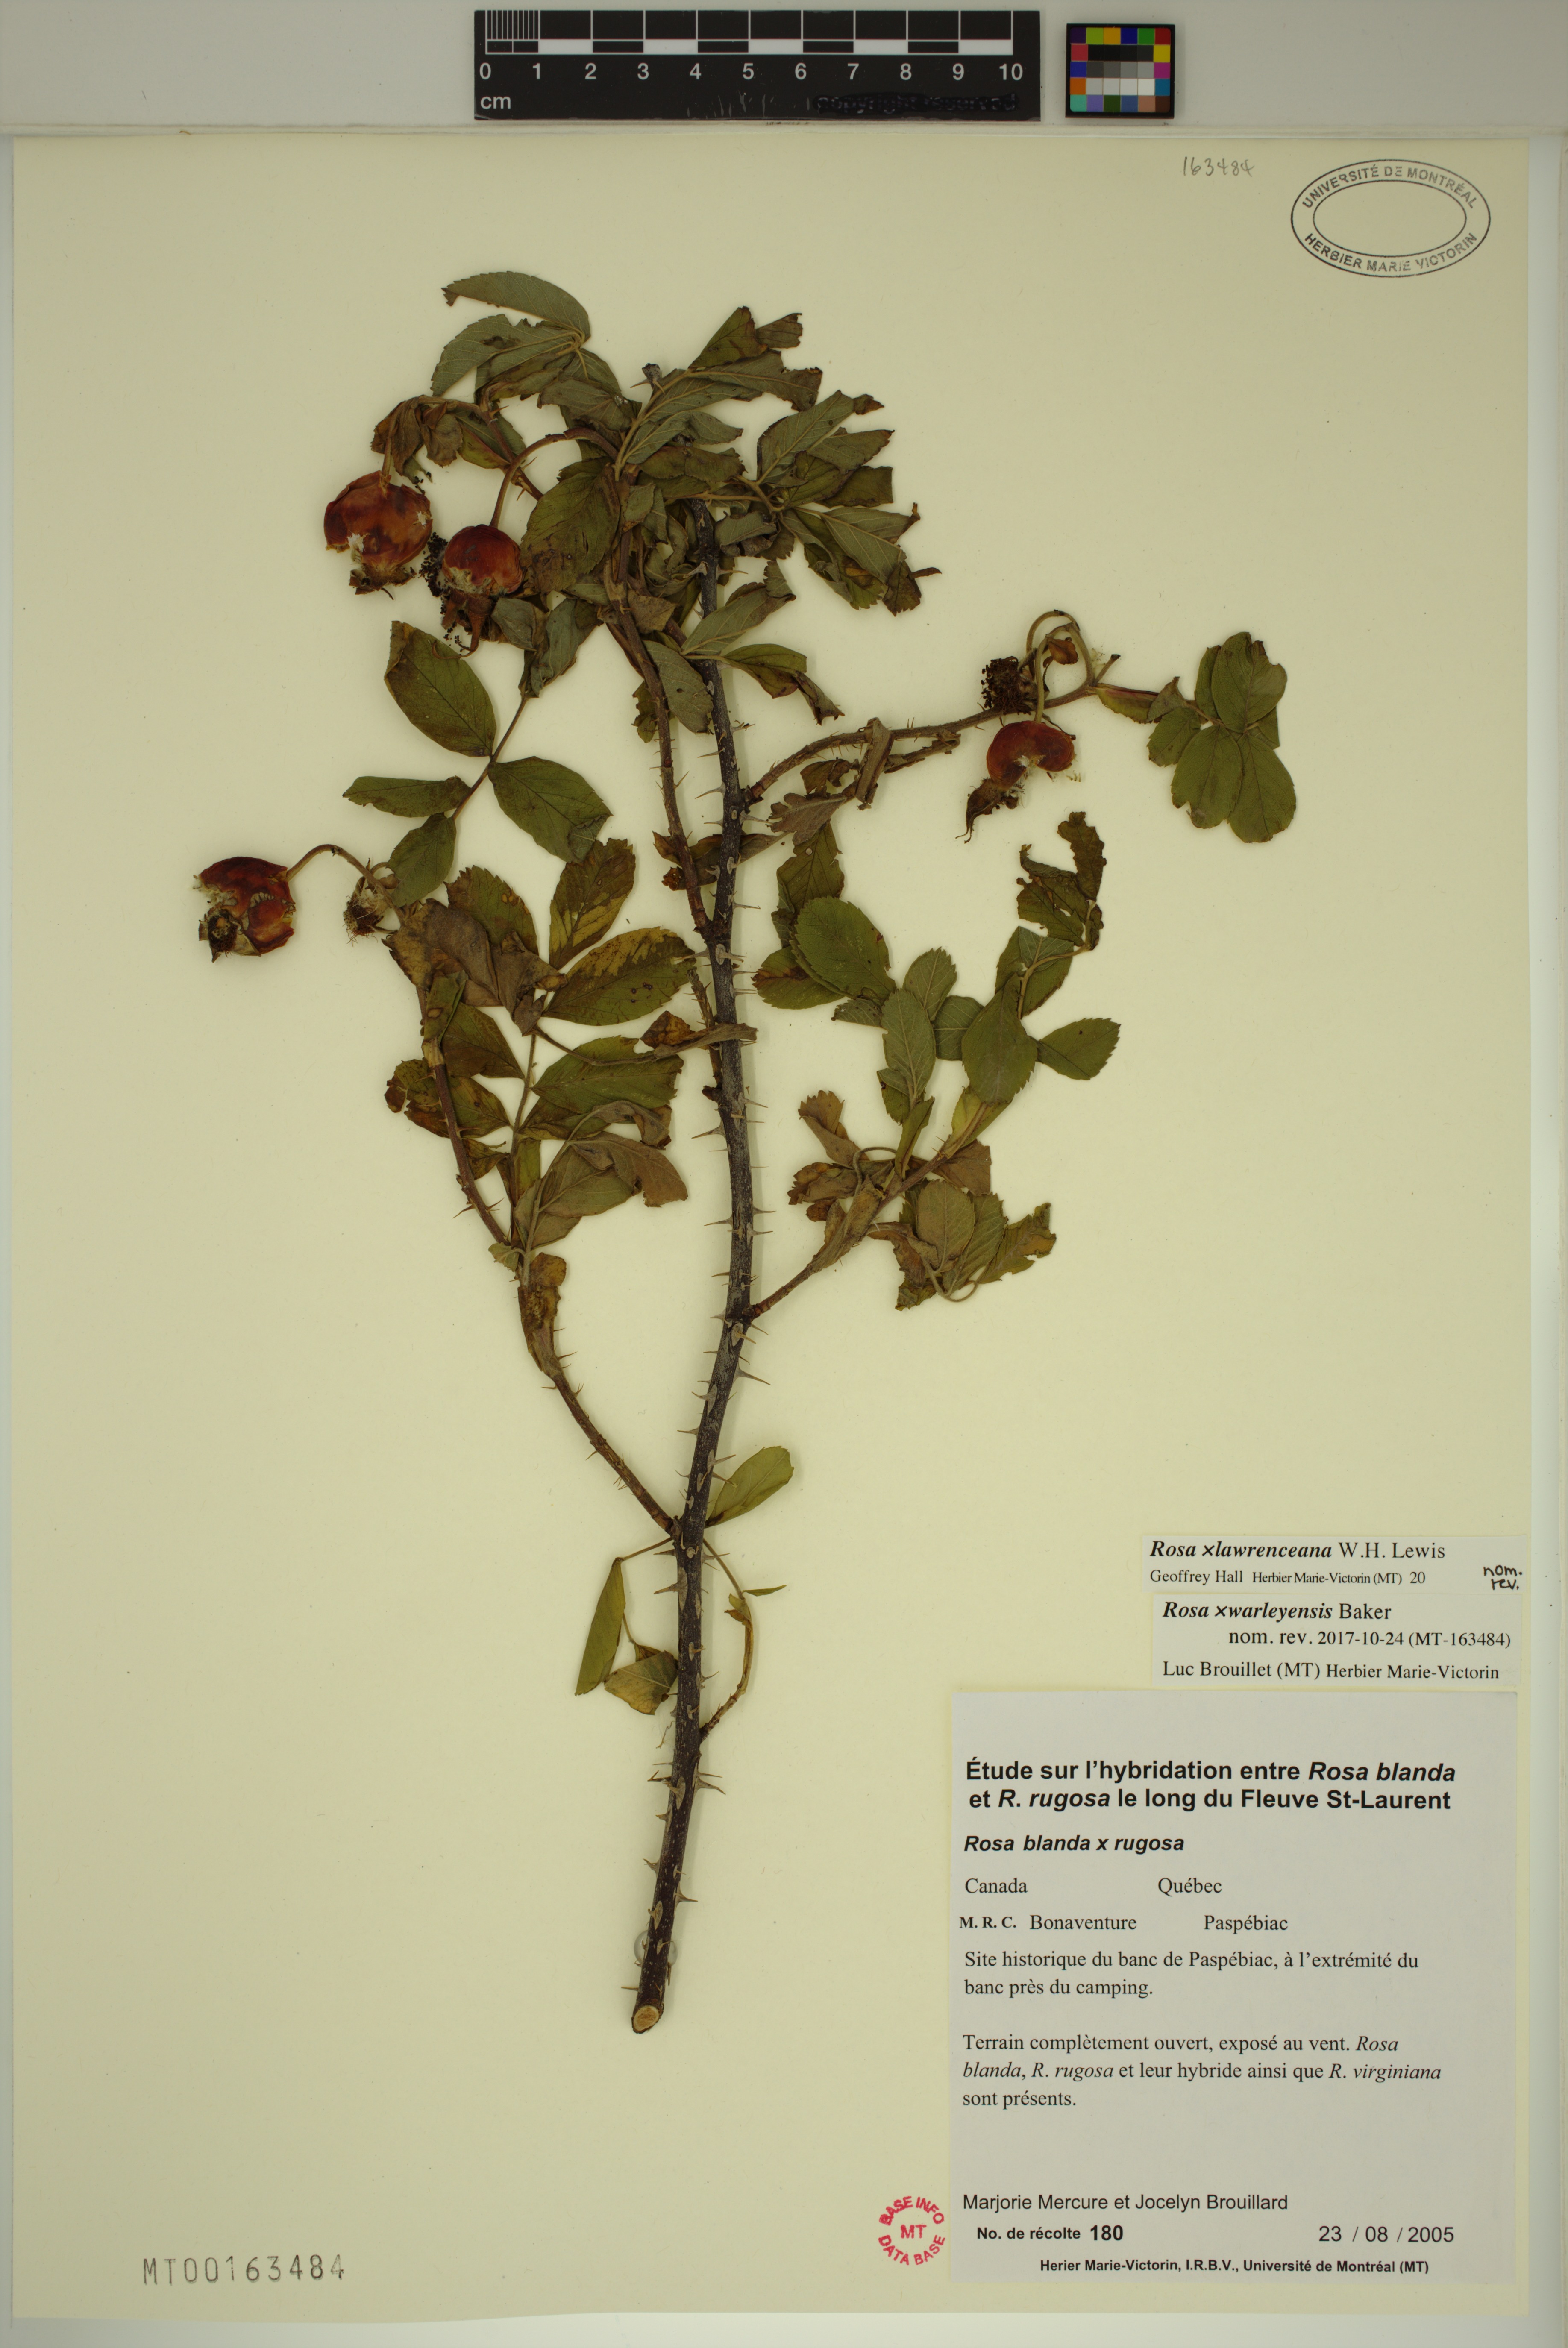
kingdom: Plantae
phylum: Tracheophyta
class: Magnoliopsida
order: Rosales
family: Rosaceae
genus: Rosa
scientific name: Rosa chinensis
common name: China rose
